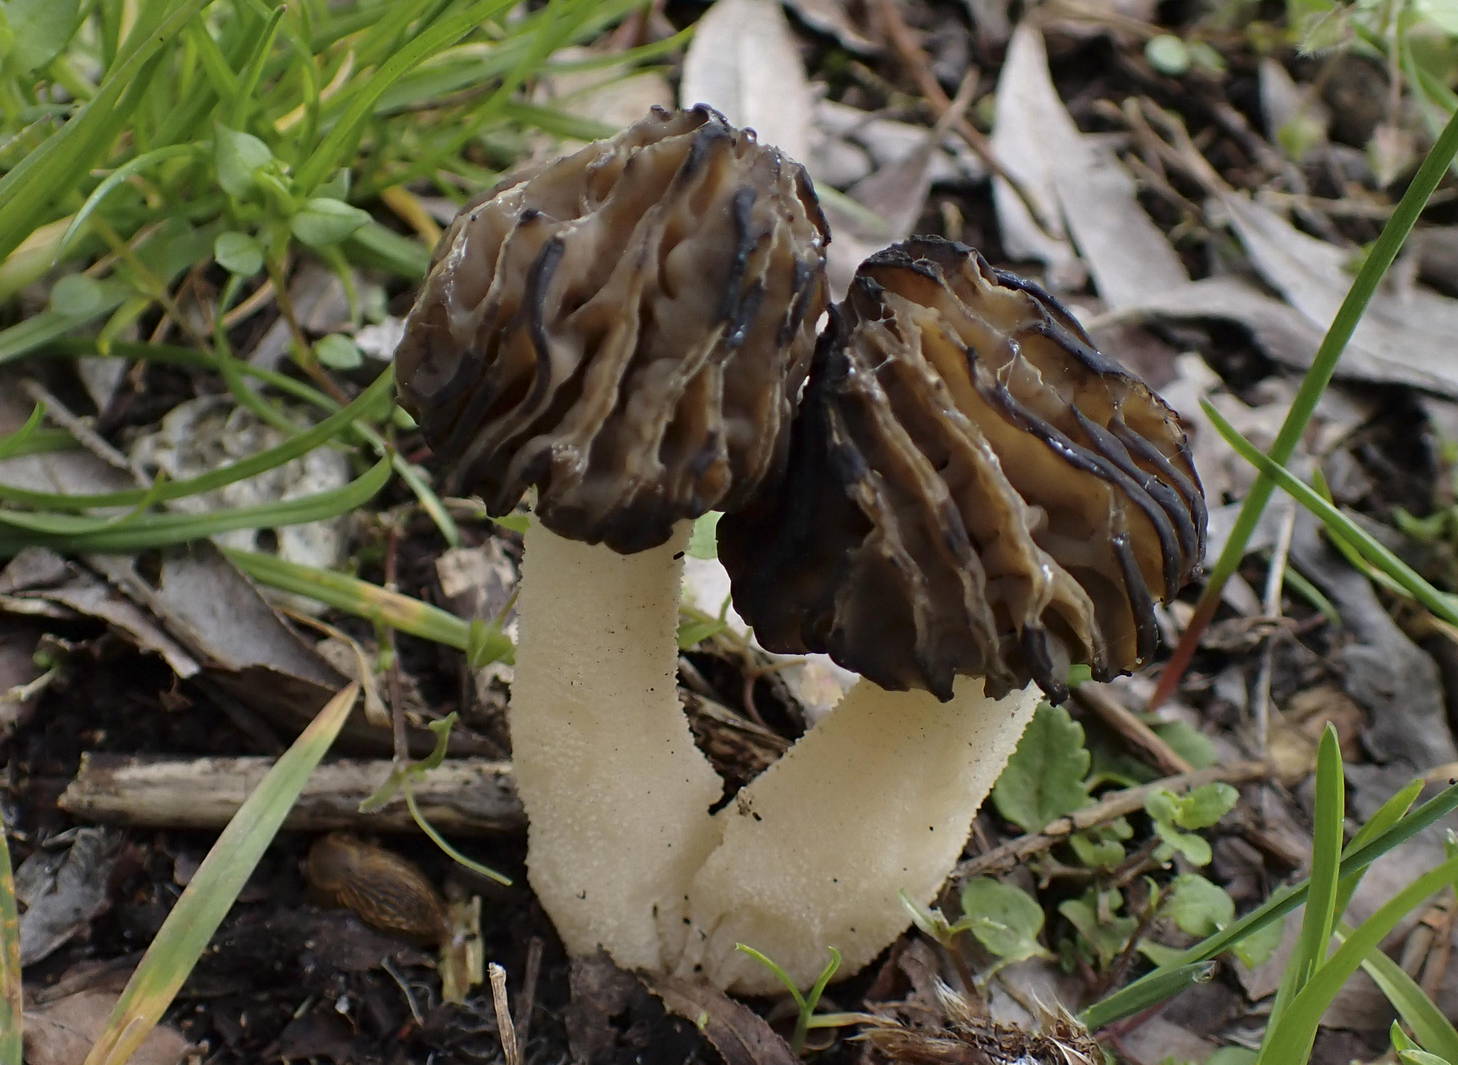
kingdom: Fungi
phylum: Ascomycota
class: Pezizomycetes
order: Pezizales
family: Morchellaceae
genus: Morchella
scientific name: Morchella semilibera
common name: hætte-morkel
